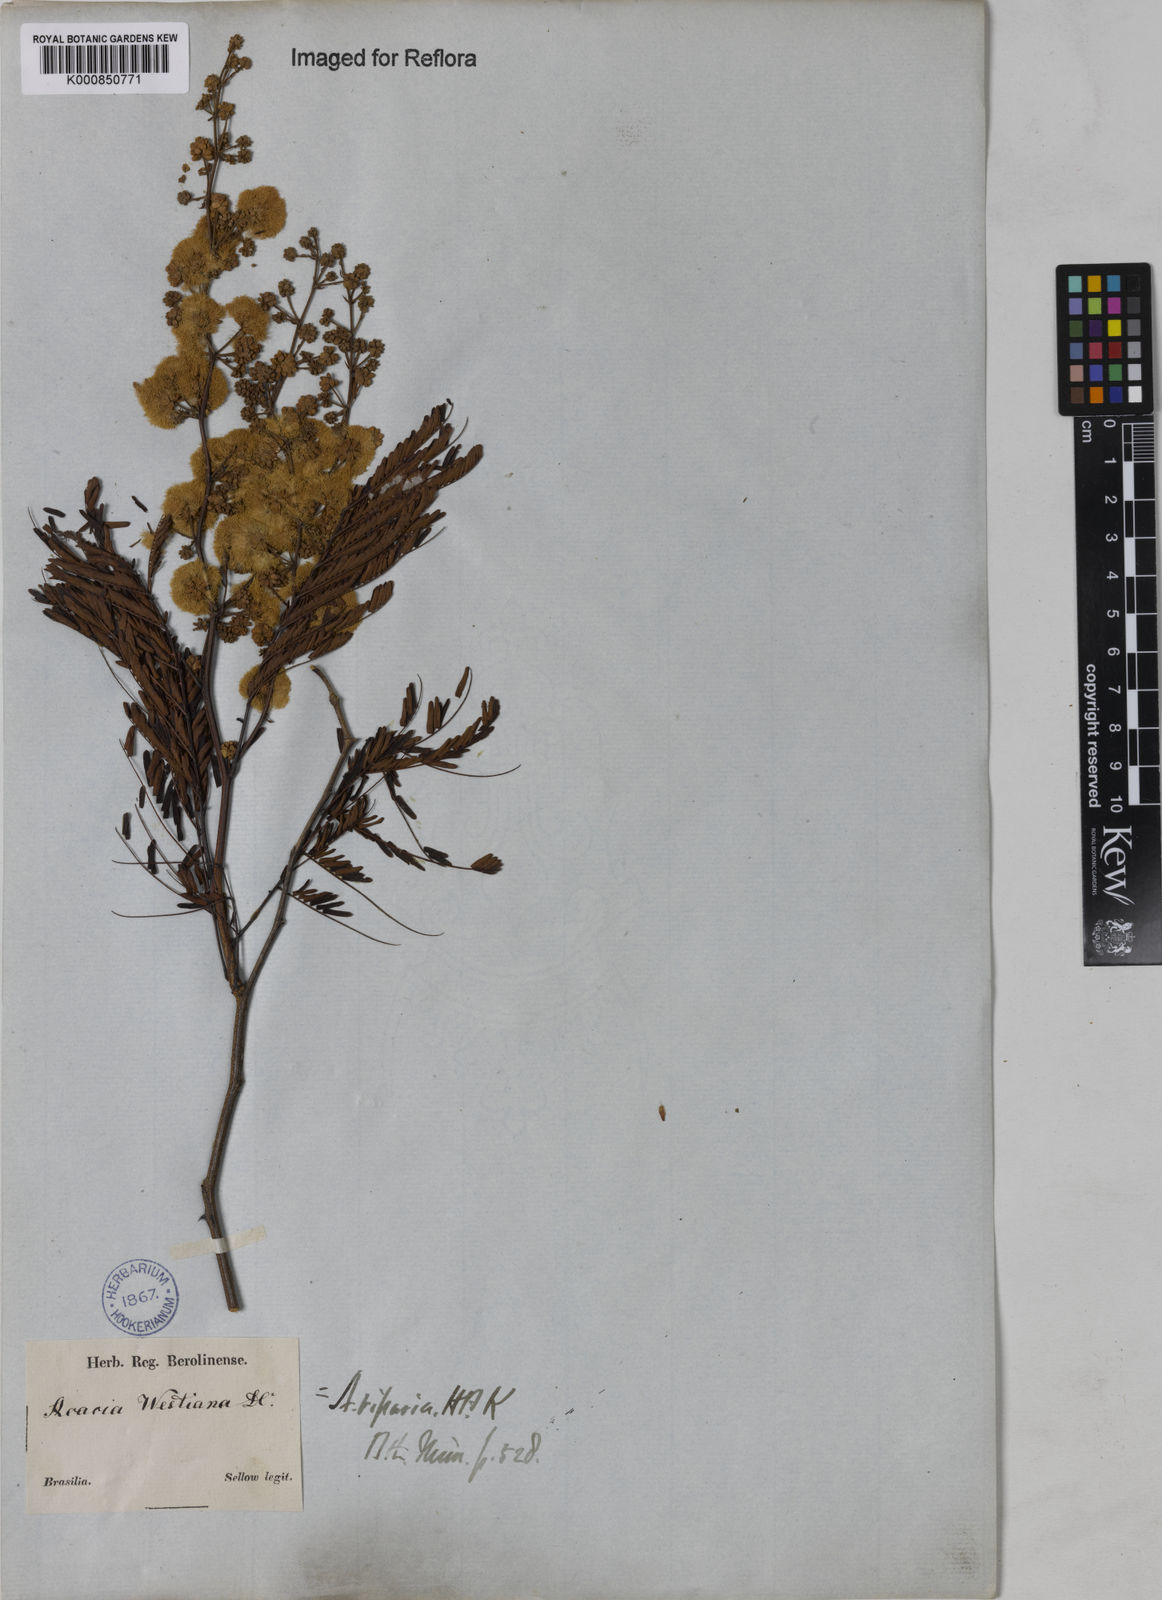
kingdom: Plantae
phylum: Tracheophyta
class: Magnoliopsida
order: Fabales
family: Fabaceae
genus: Senegalia
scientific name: Senegalia riparia
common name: Catch-and-keep
